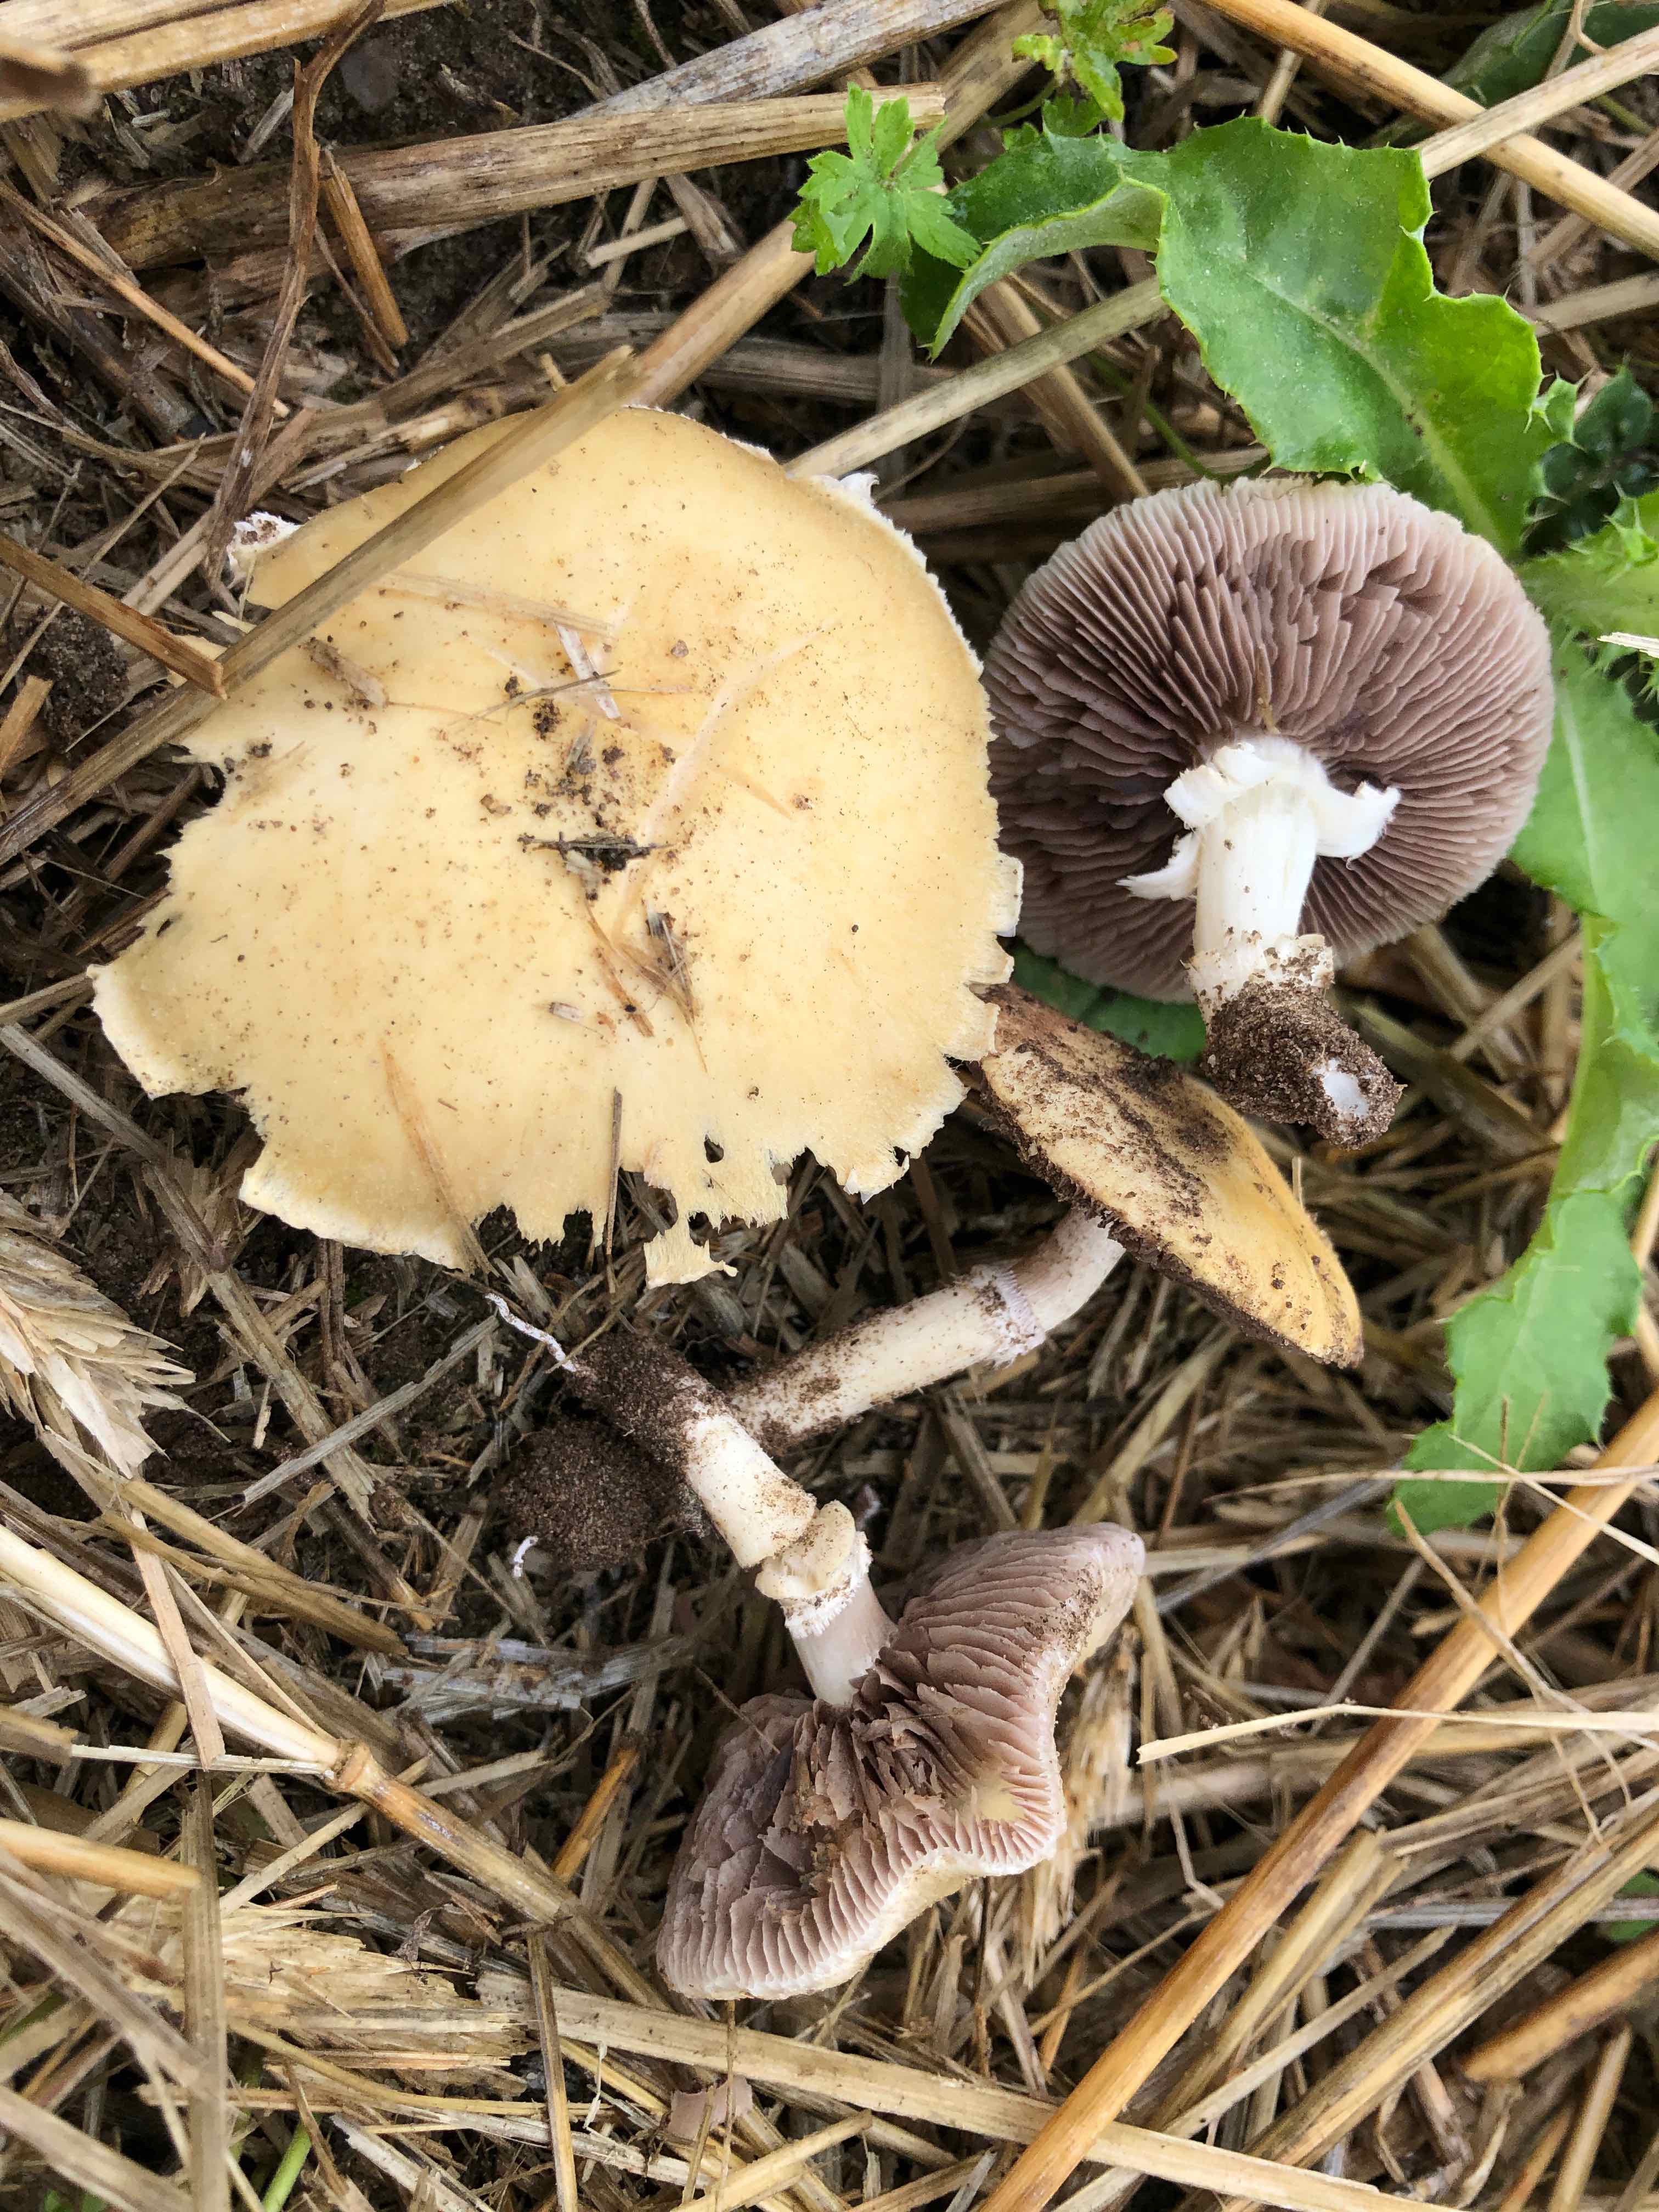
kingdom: Fungi
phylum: Basidiomycota
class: Agaricomycetes
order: Agaricales
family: Hymenogastraceae
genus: Psilocybe
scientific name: Psilocybe coronilla
